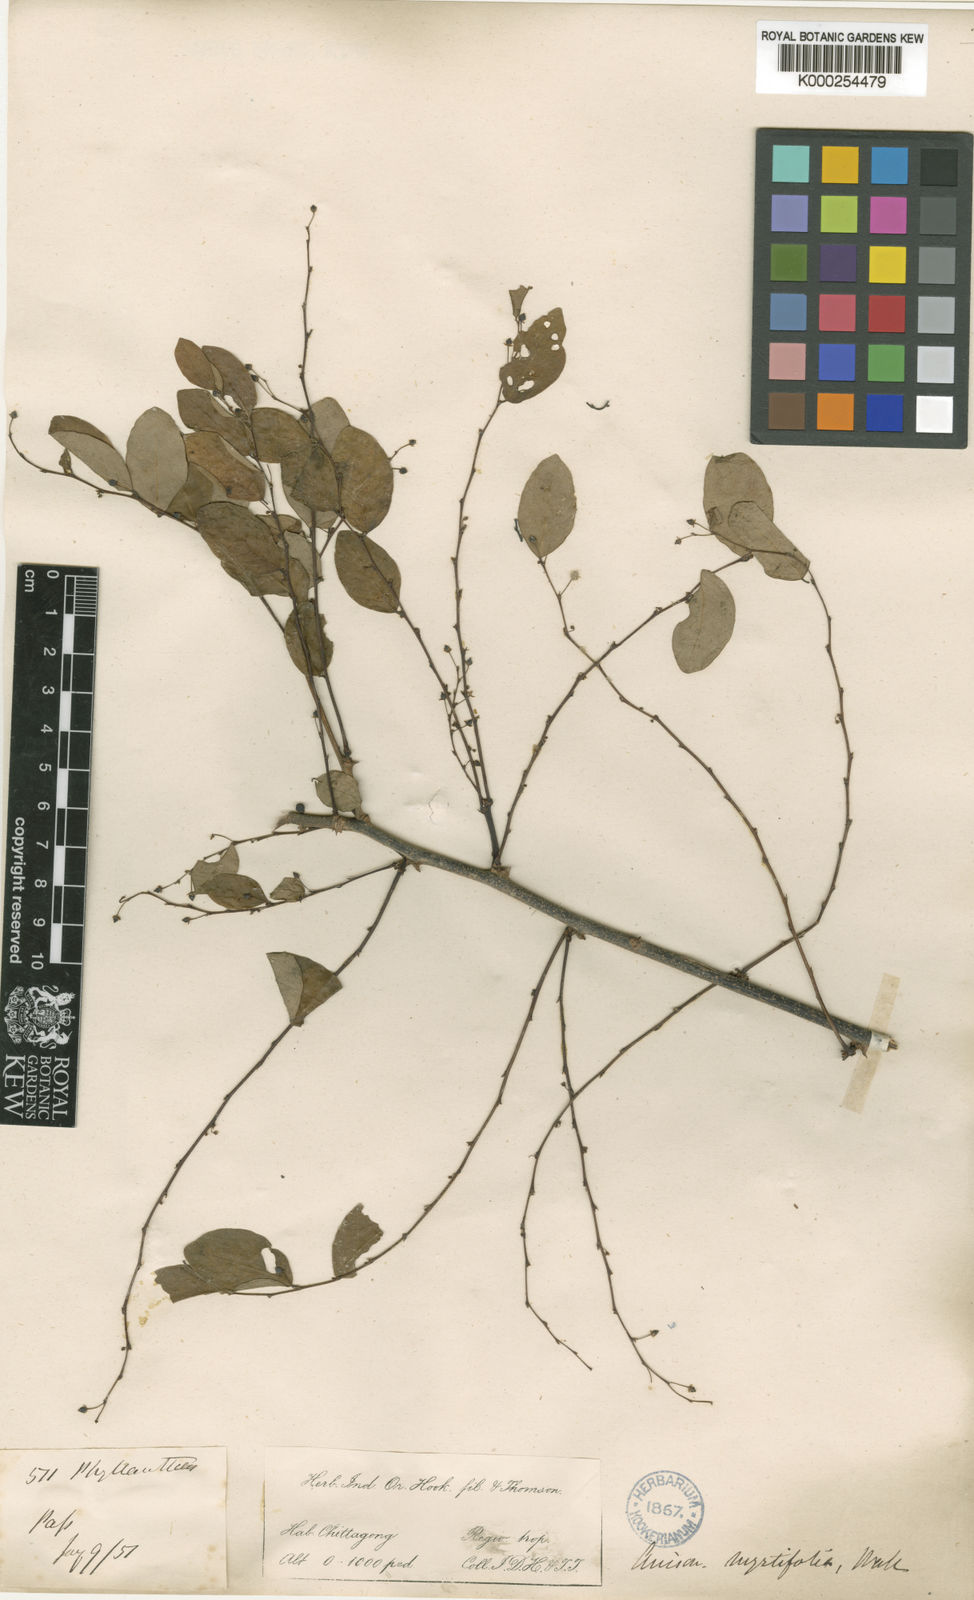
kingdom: Plantae
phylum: Tracheophyta
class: Magnoliopsida
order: Malpighiales
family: Phyllanthaceae
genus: Phyllanthus
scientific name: Phyllanthus reticulatus
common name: Potato bush
